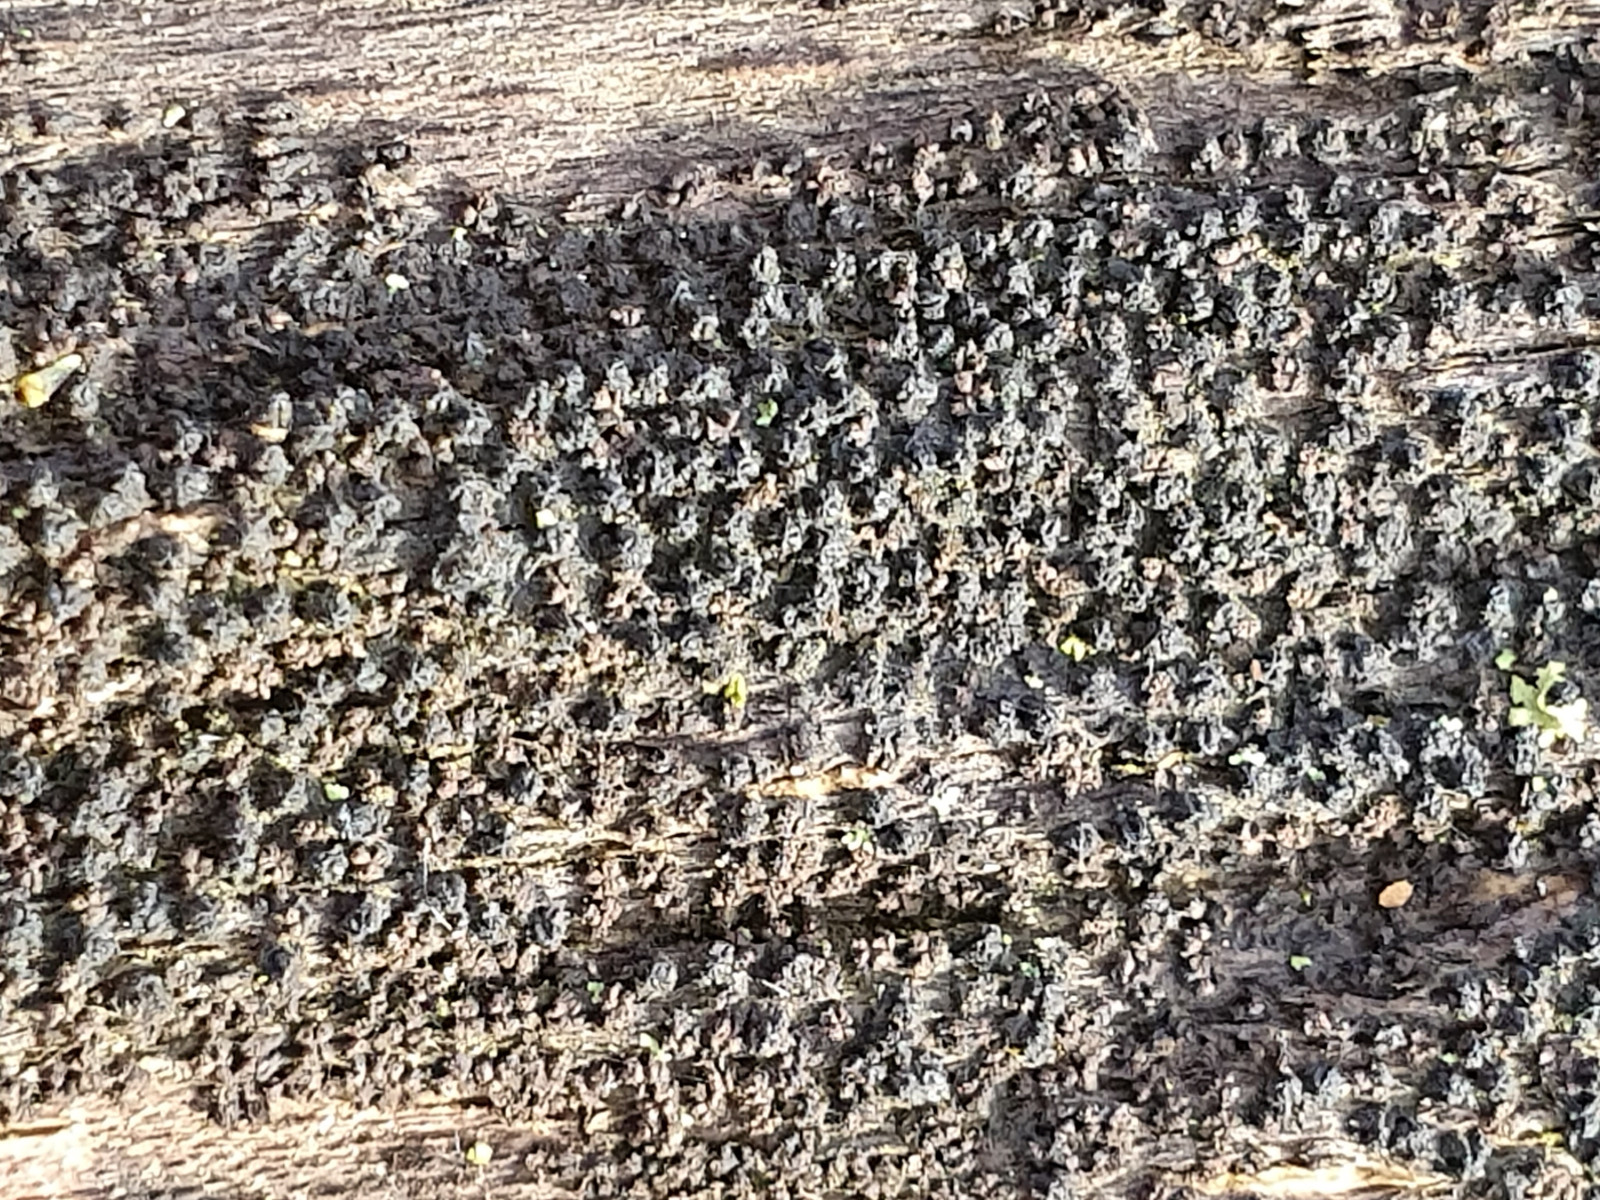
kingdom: Fungi
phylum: Ascomycota
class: Sordariomycetes
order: Xylariales
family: Diatrypaceae
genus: Eutypa
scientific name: Eutypa spinosa
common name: grov kulskorpe
